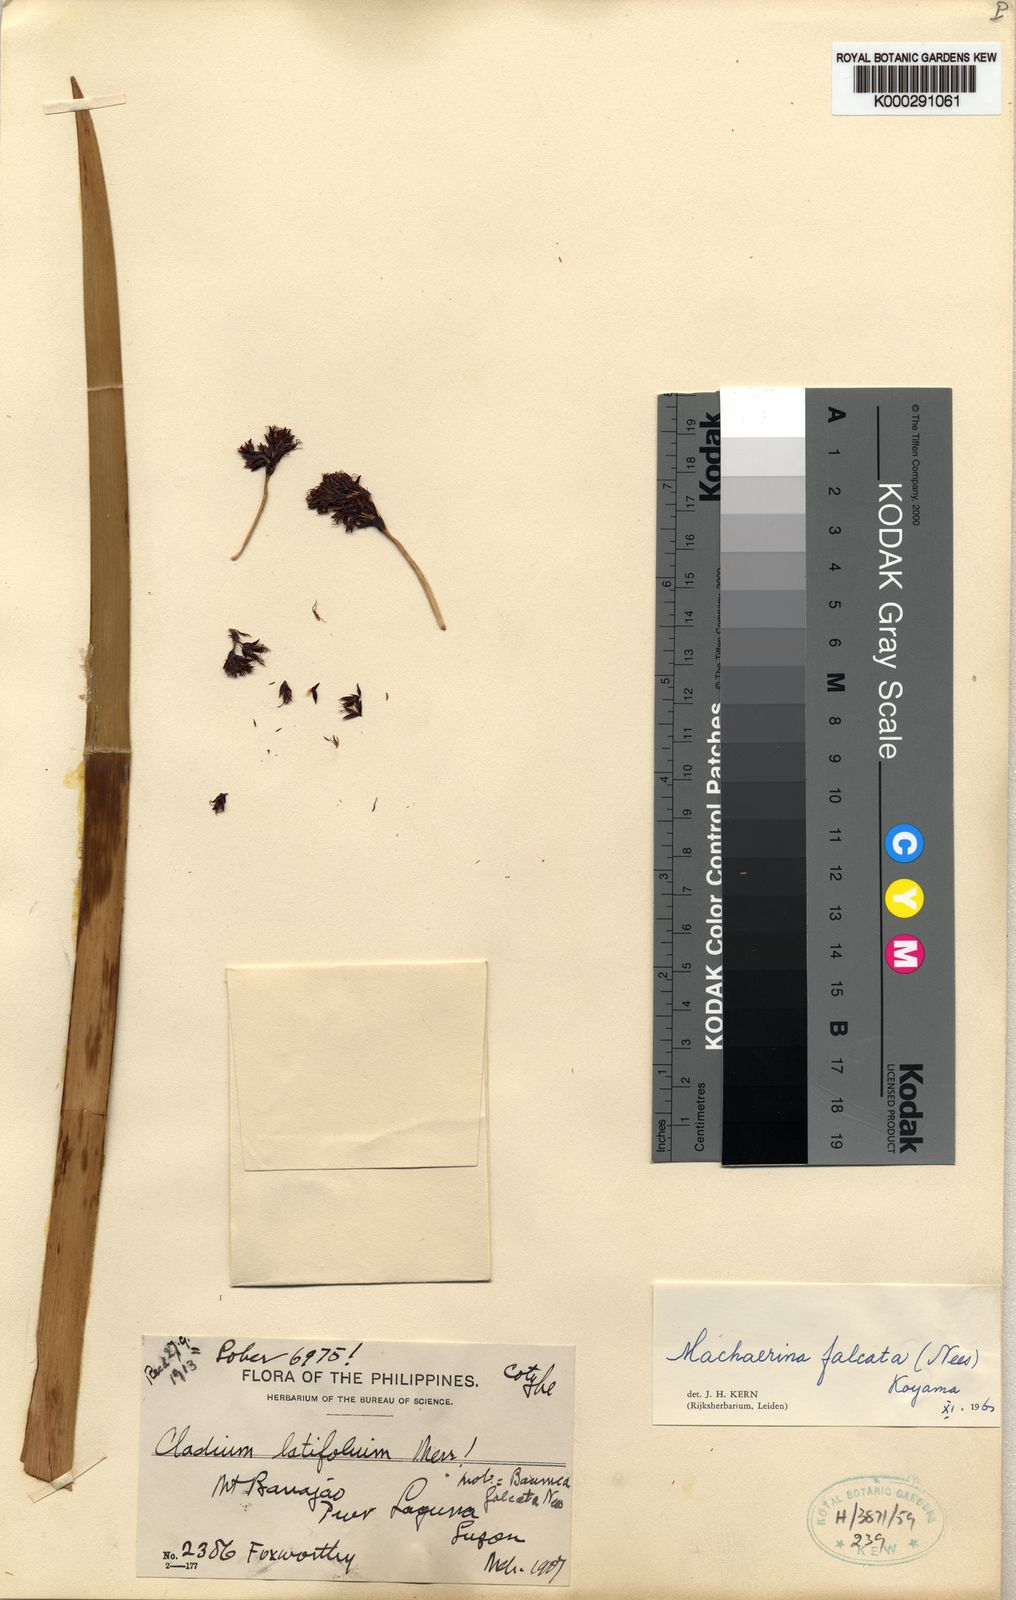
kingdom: Plantae
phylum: Tracheophyta
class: Liliopsida
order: Poales
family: Cyperaceae
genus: Machaerina
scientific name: Machaerina falcata
